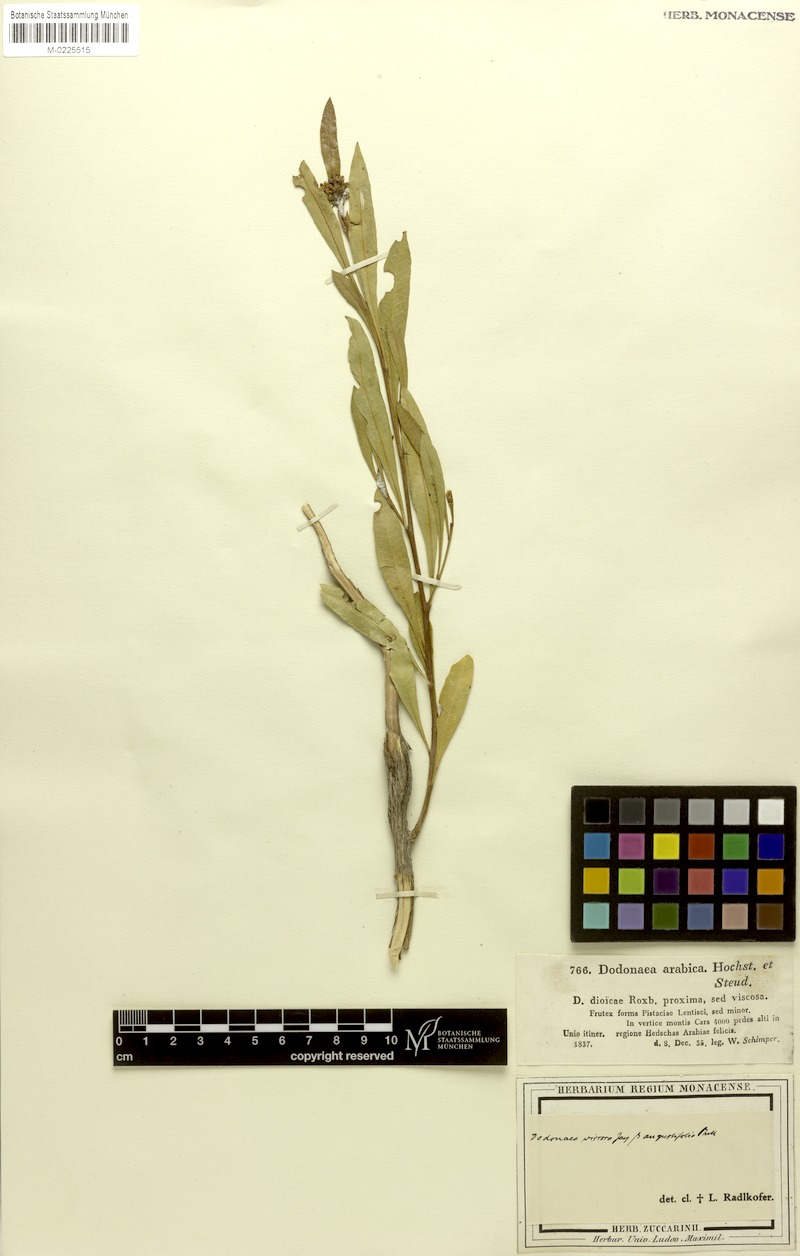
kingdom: Plantae
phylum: Tracheophyta
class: Magnoliopsida
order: Sapindales
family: Sapindaceae
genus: Dodonaea
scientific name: Dodonaea viscosa
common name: Hopbush
